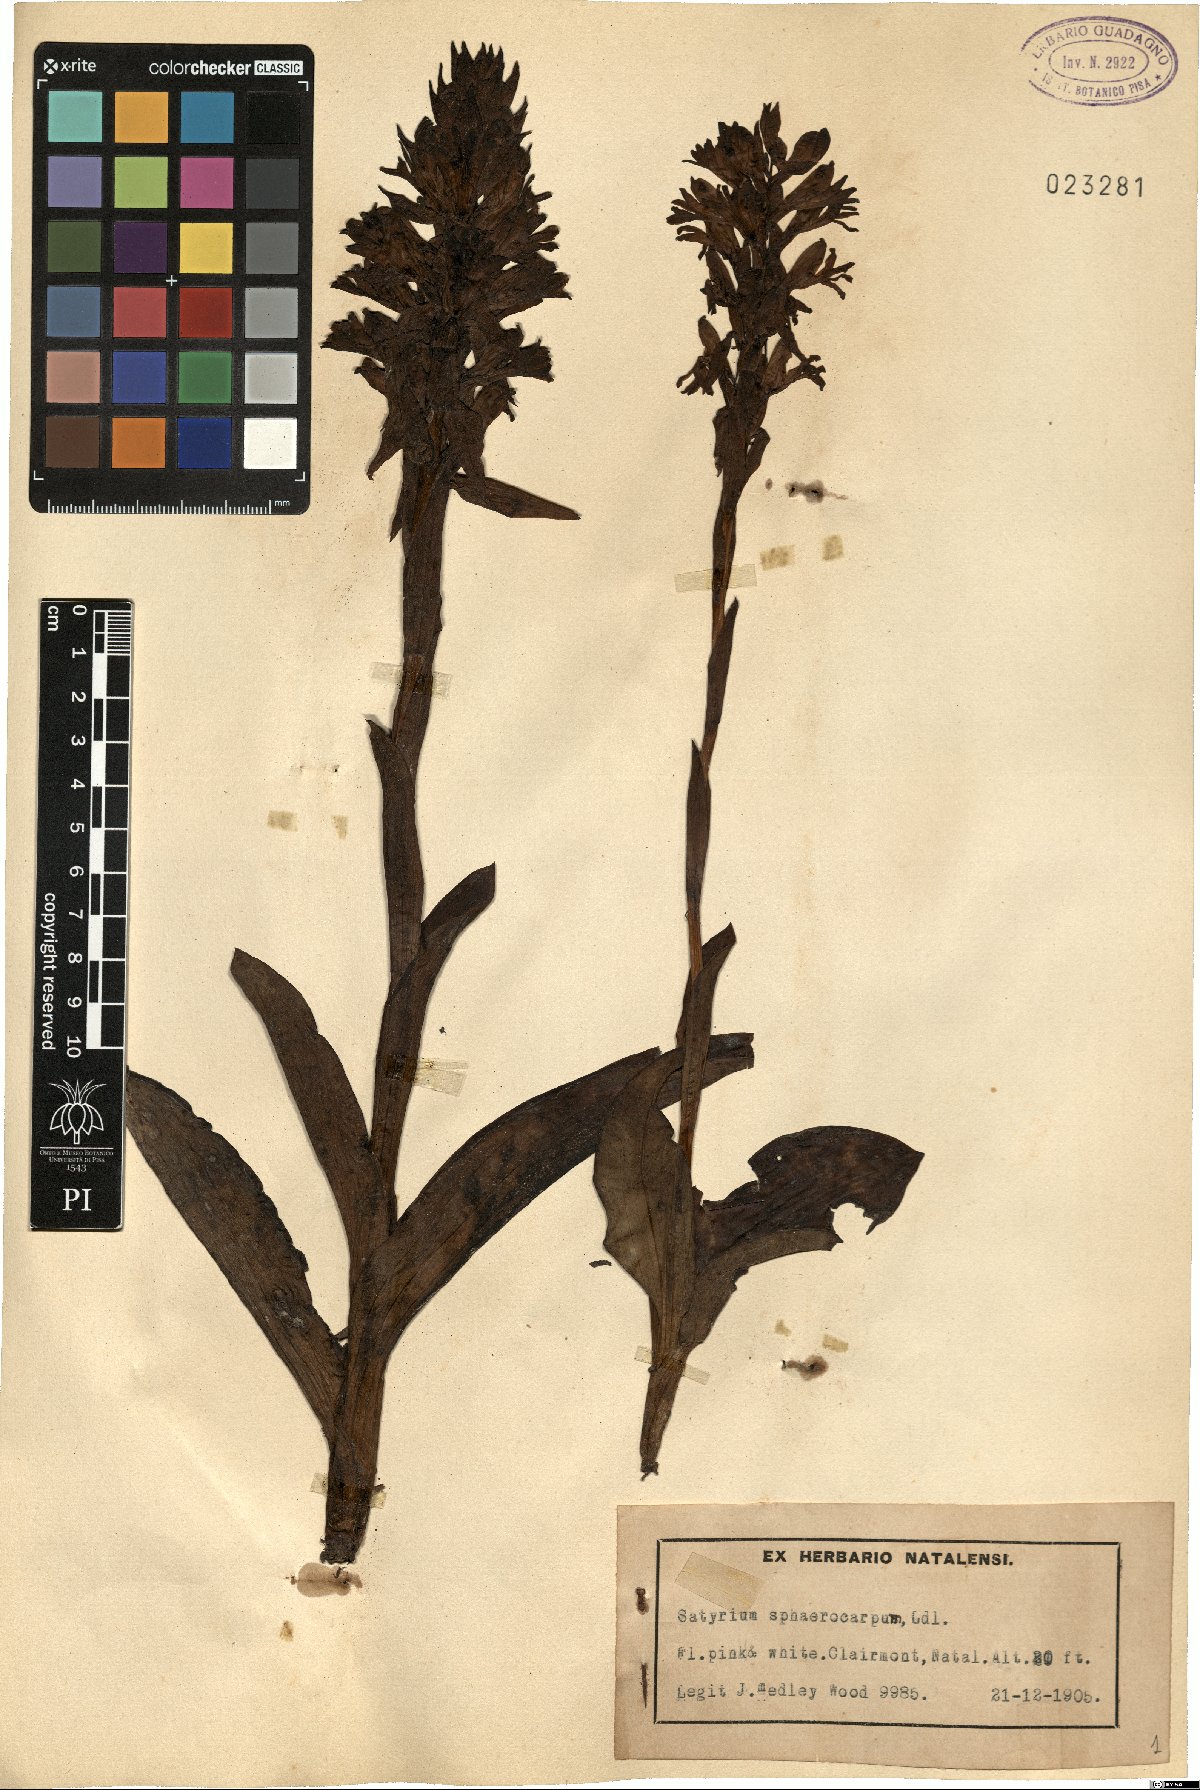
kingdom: Plantae
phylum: Tracheophyta
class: Liliopsida
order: Asparagales
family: Orchidaceae
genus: Satyrium
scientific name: Satyrium sphaerocarpum
